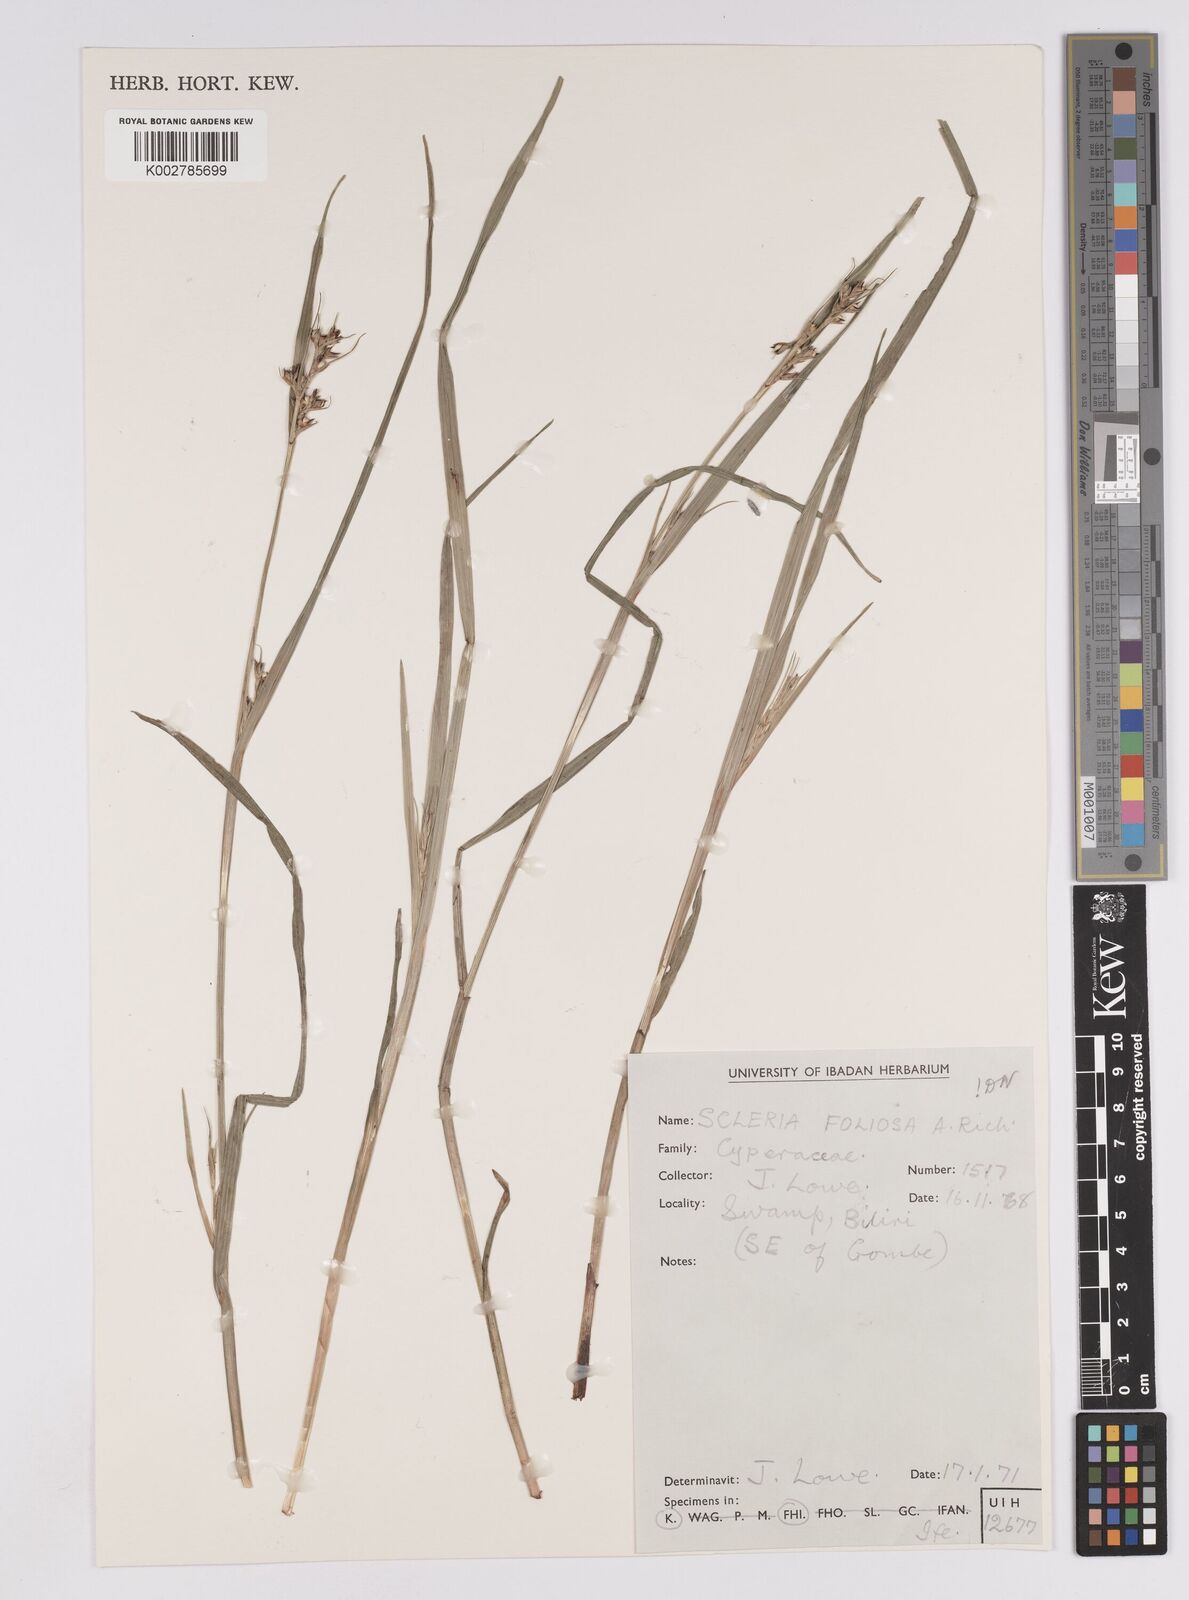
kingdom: Plantae
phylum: Tracheophyta
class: Liliopsida
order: Poales
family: Cyperaceae
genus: Scleria
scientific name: Scleria foliosa
